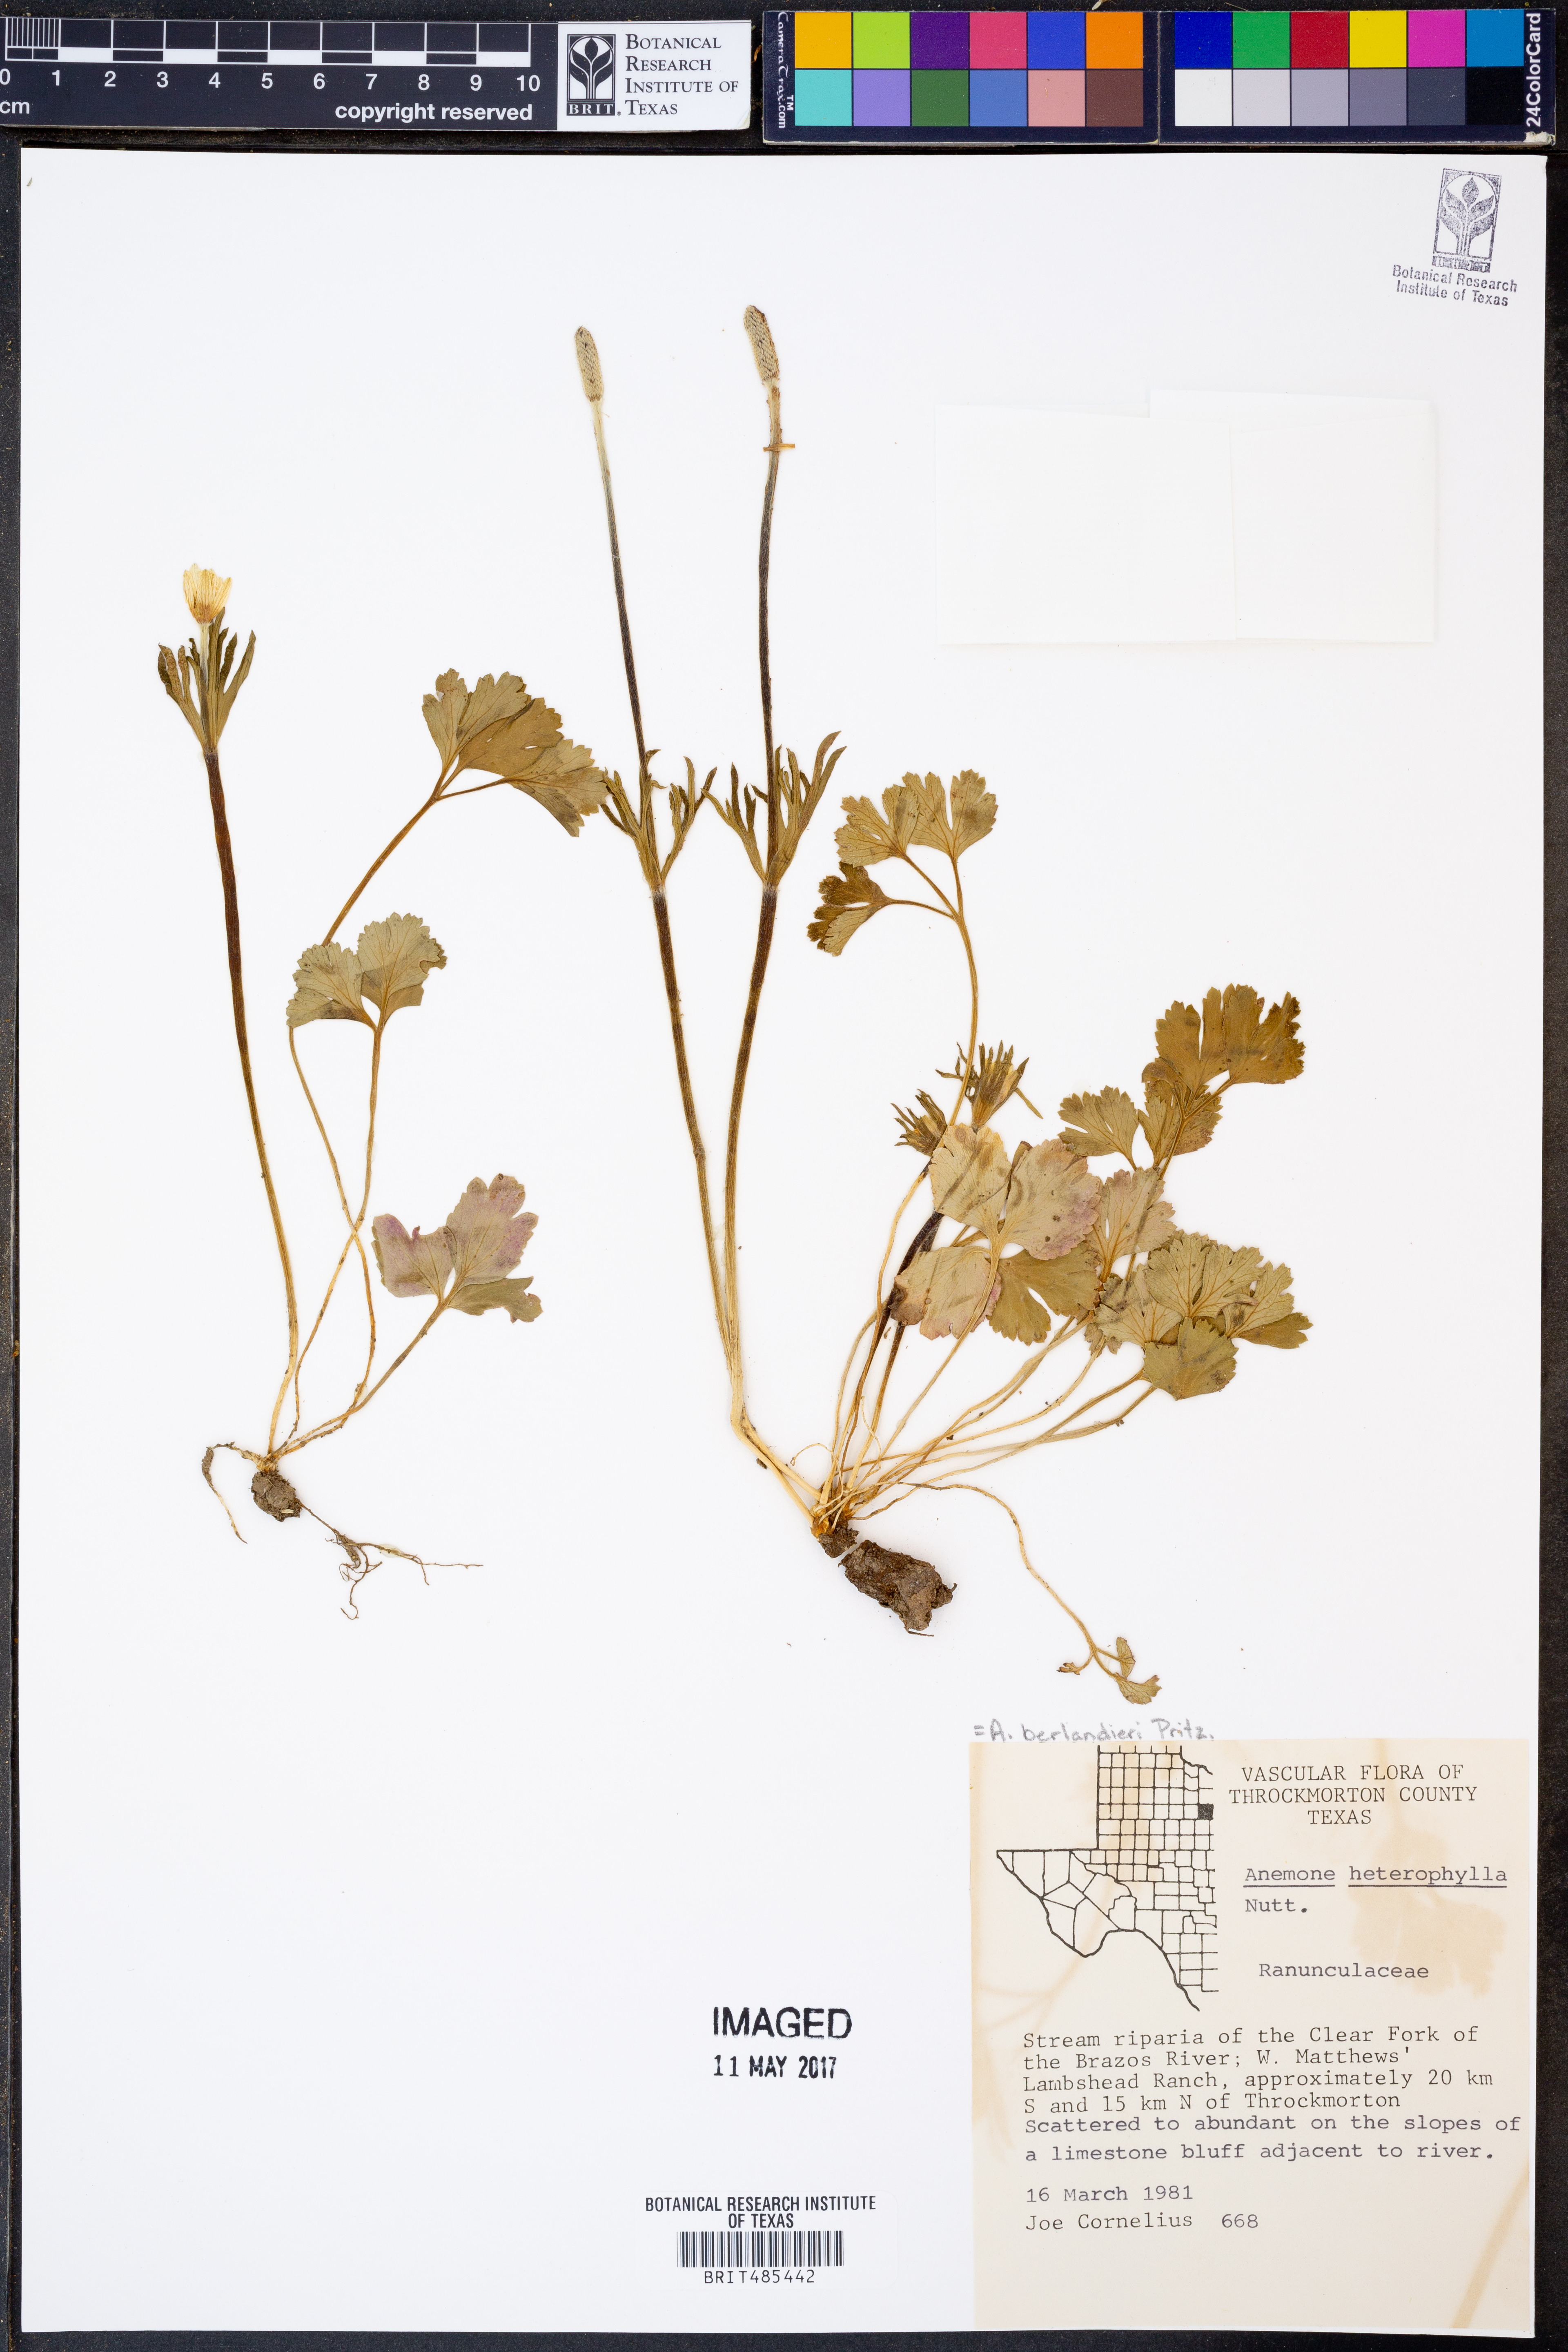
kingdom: Plantae
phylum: Tracheophyta
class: Magnoliopsida
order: Ranunculales
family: Ranunculaceae
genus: Anemone
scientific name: Anemone heterophylla
